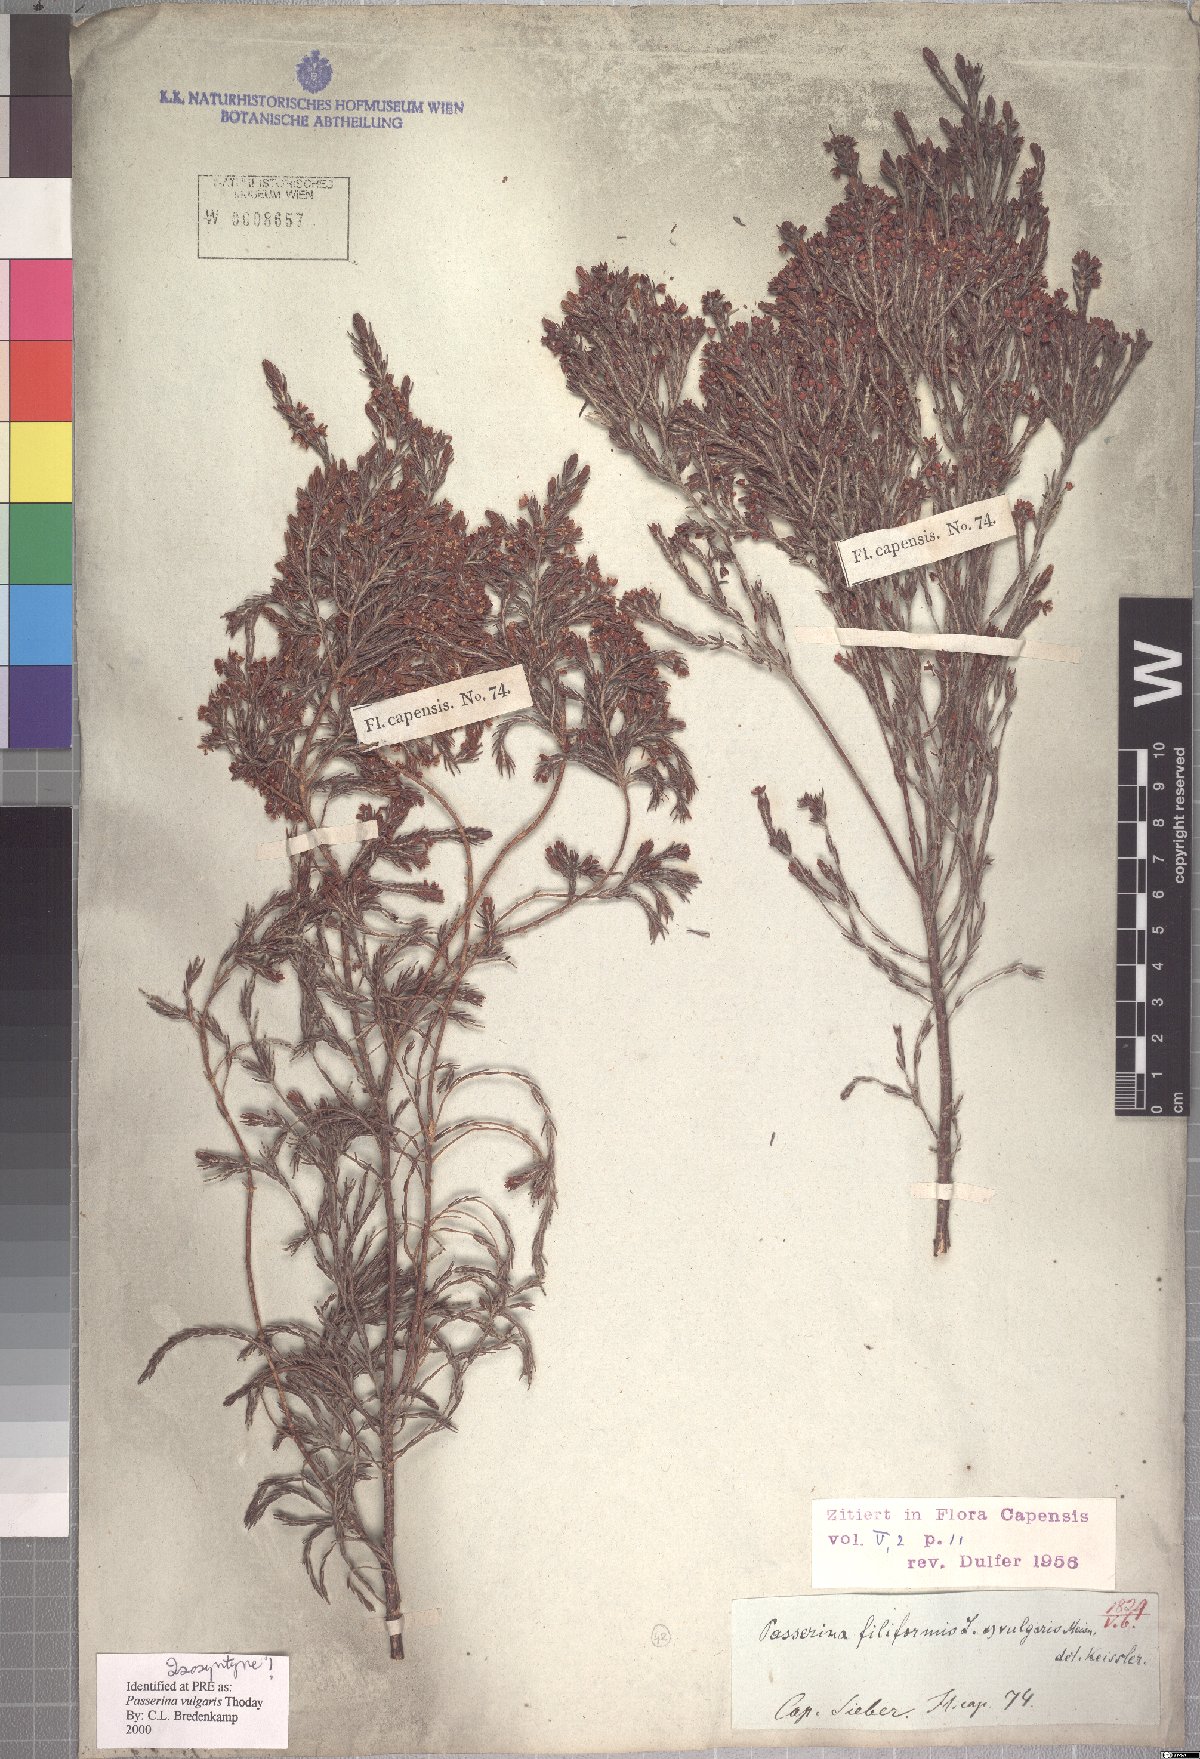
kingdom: Plantae
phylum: Tracheophyta
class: Magnoliopsida
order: Malvales
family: Thymelaeaceae
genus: Passerina
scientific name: Passerina corymbosa
